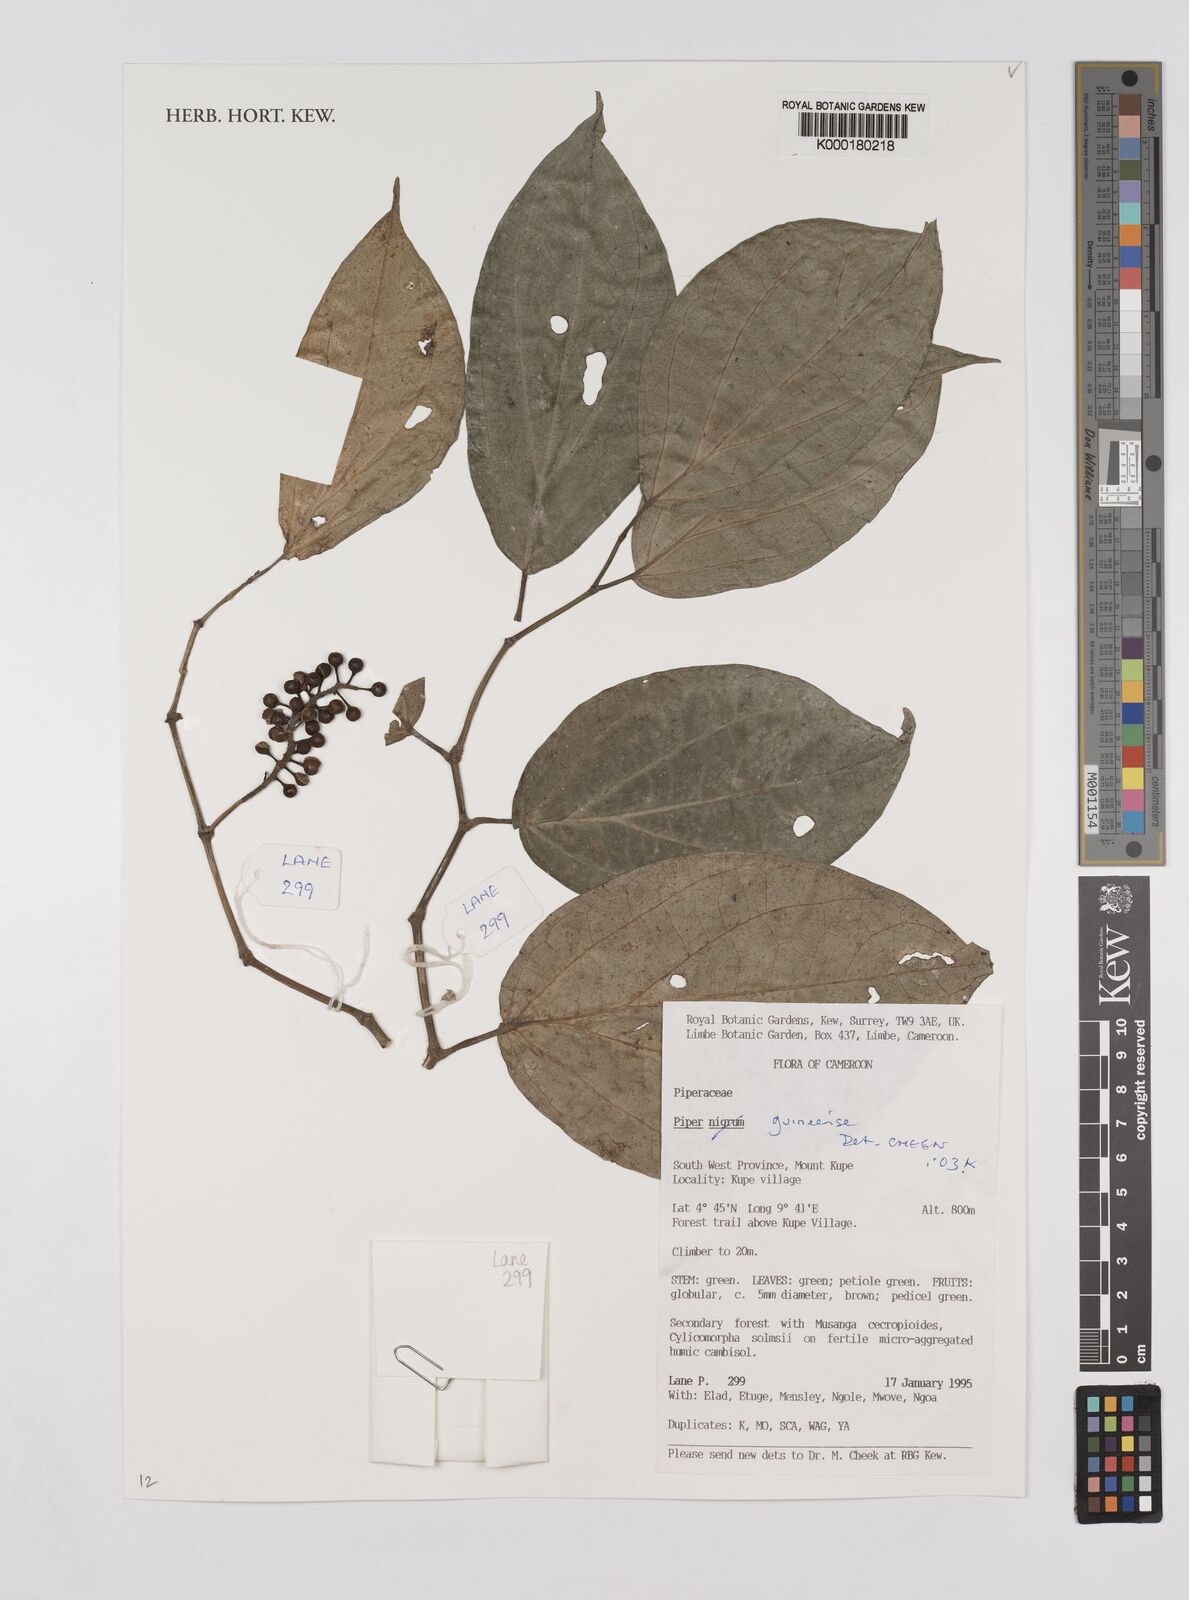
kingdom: Plantae
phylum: Tracheophyta
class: Magnoliopsida
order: Piperales
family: Piperaceae
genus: Piper
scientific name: Piper guineense
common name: Benin pepper
